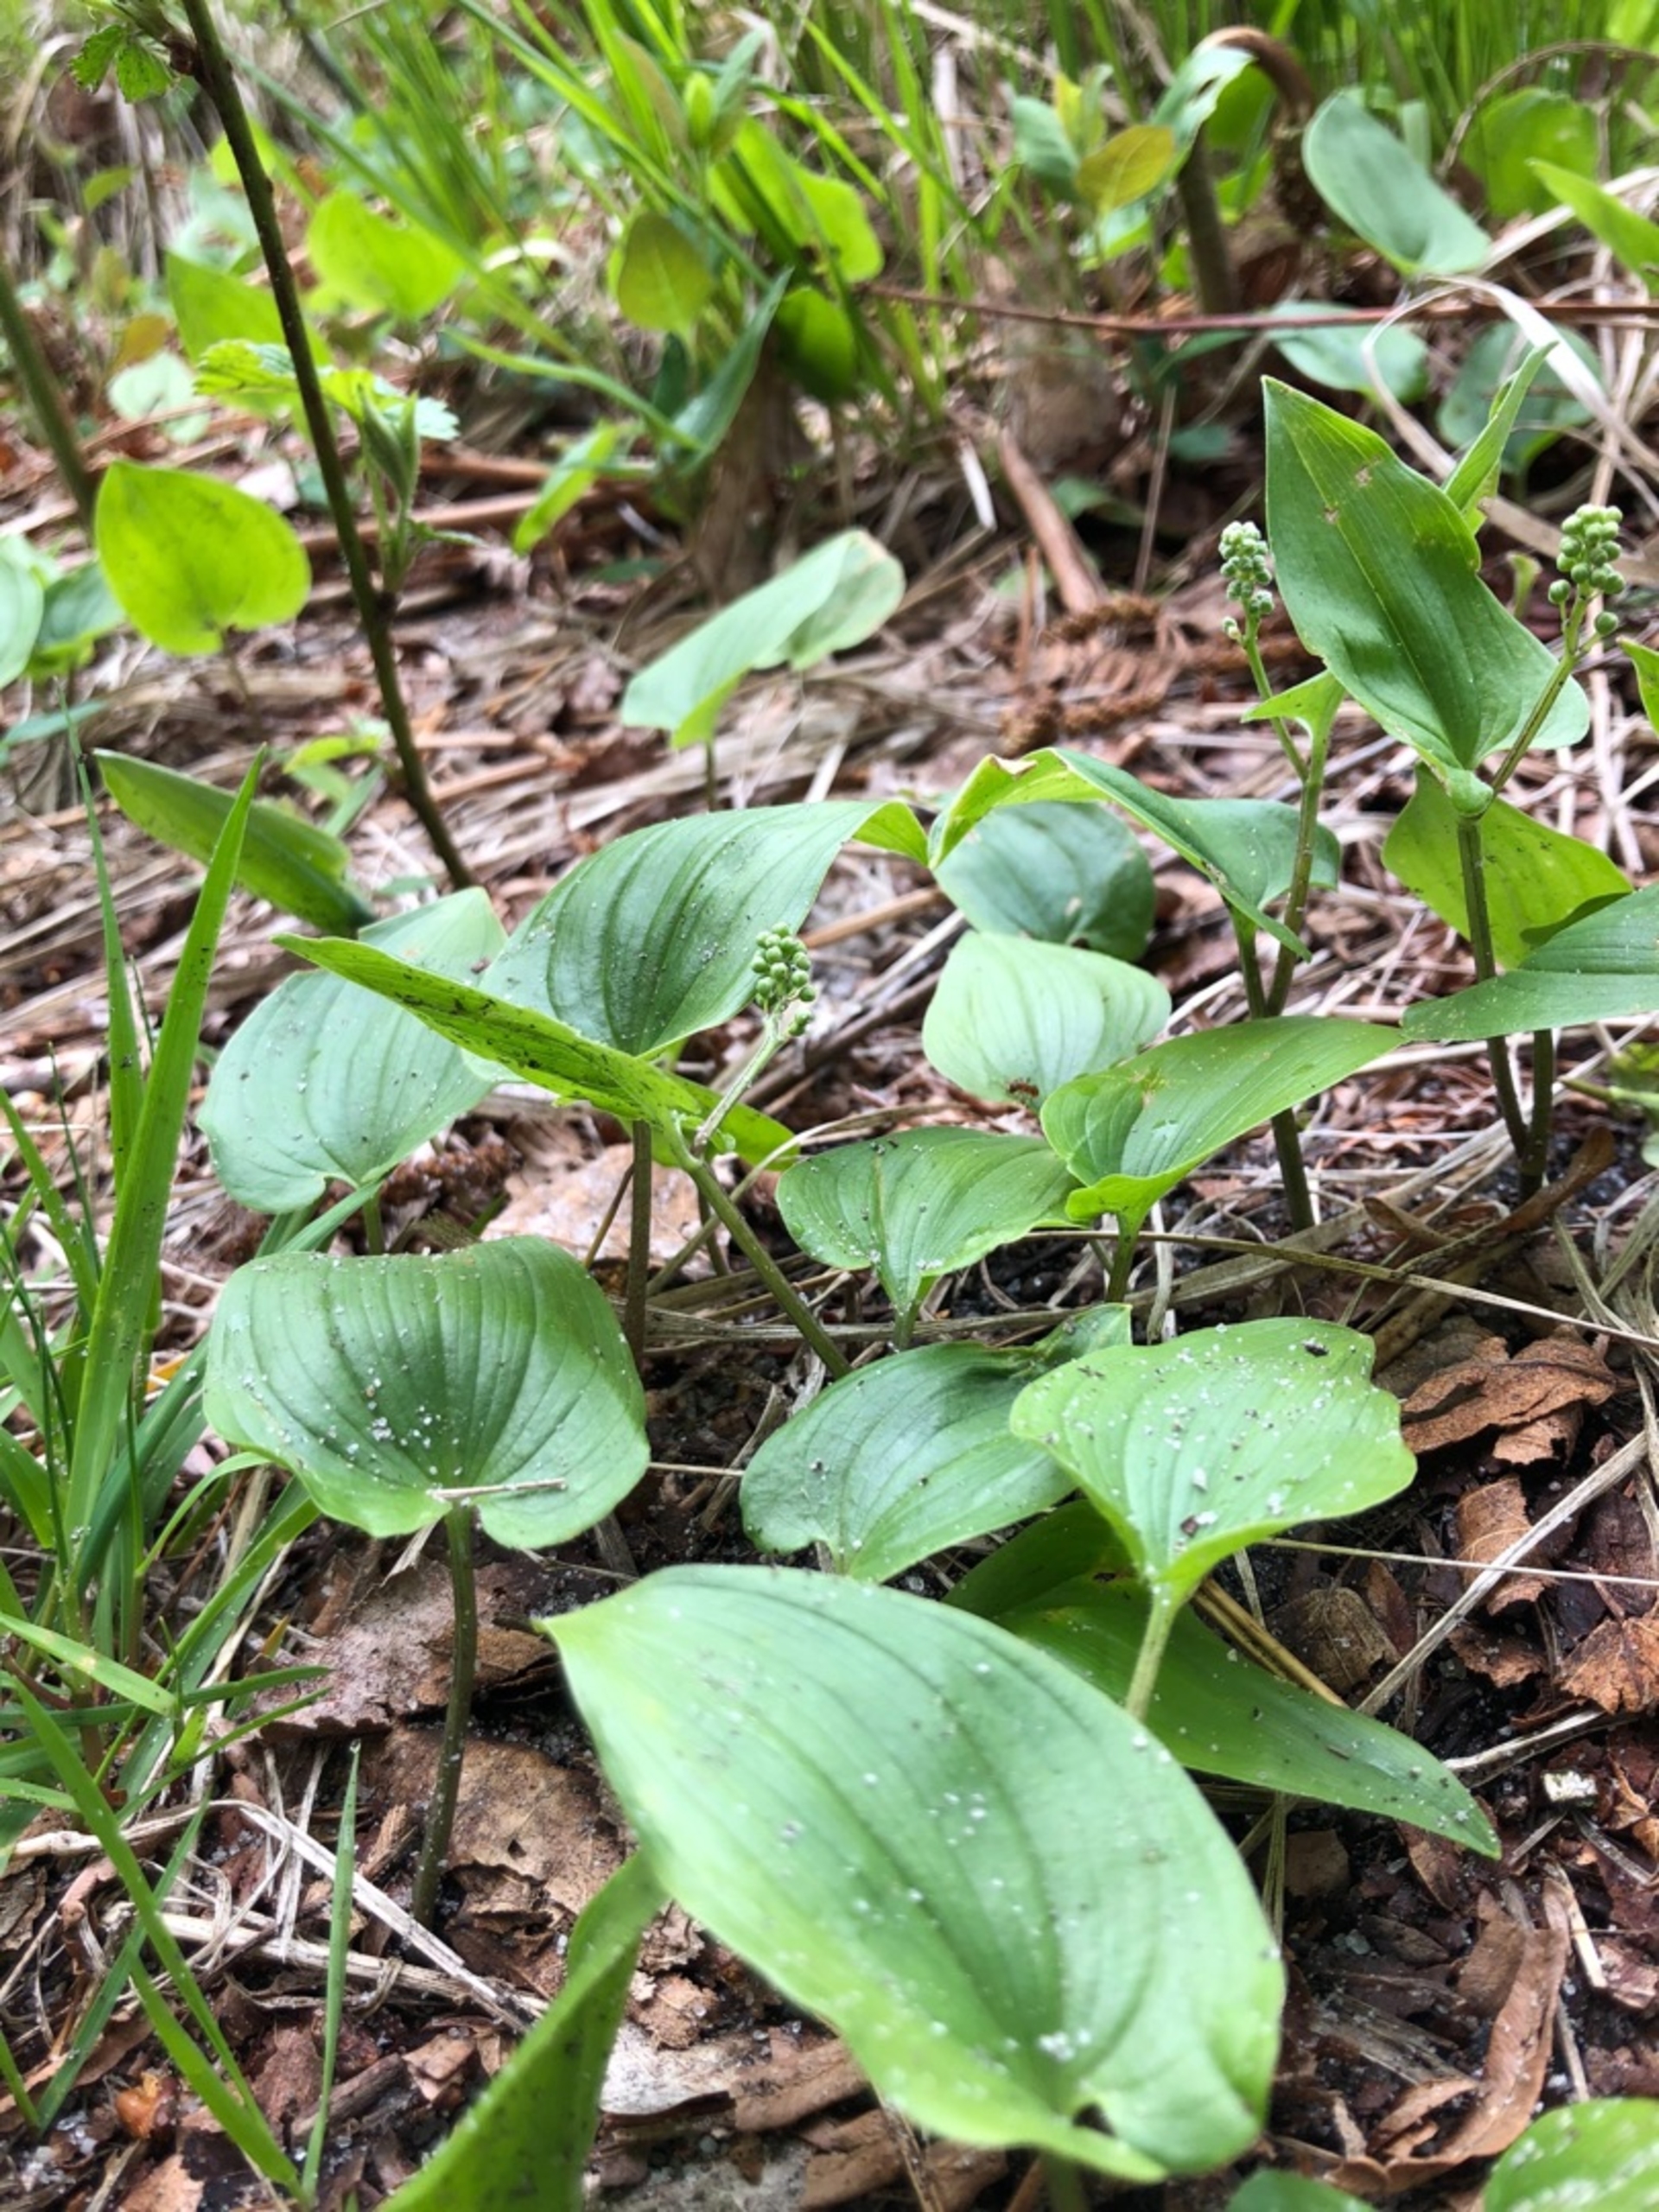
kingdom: Plantae
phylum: Tracheophyta
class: Liliopsida
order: Asparagales
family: Asparagaceae
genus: Maianthemum
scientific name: Maianthemum bifolium
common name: Majblomst
